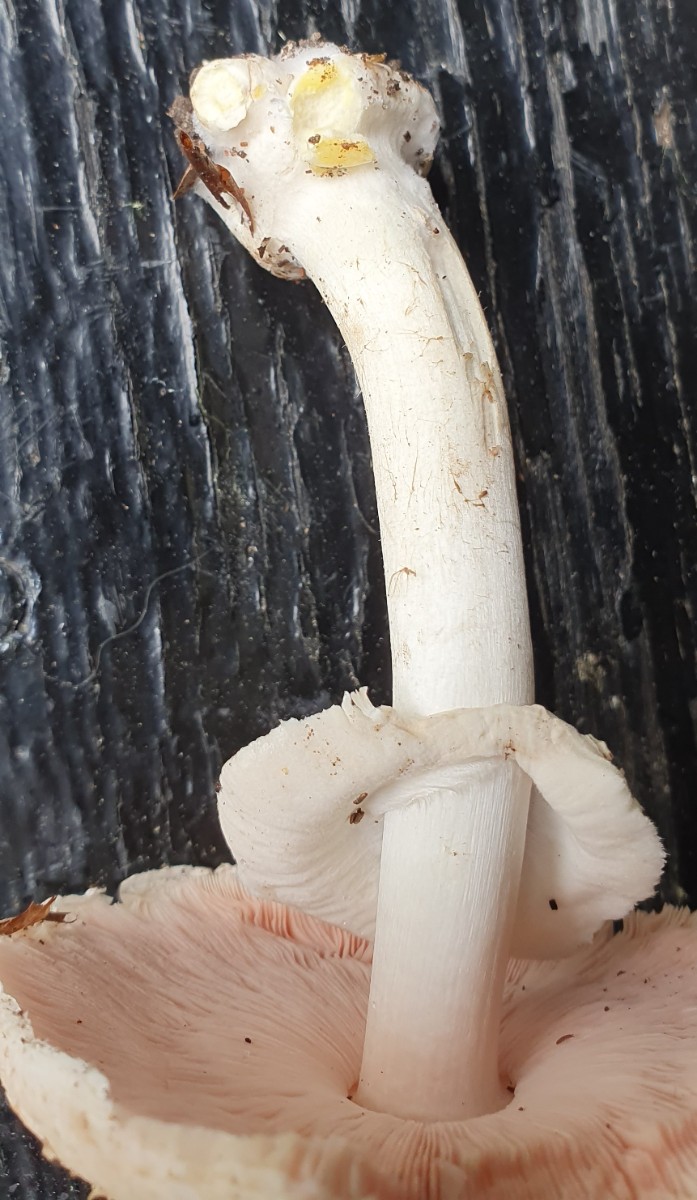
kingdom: Fungi
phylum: Basidiomycota
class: Agaricomycetes
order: Agaricales
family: Agaricaceae
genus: Agaricus
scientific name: Agaricus moelleri
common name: perlehøne-champignon
